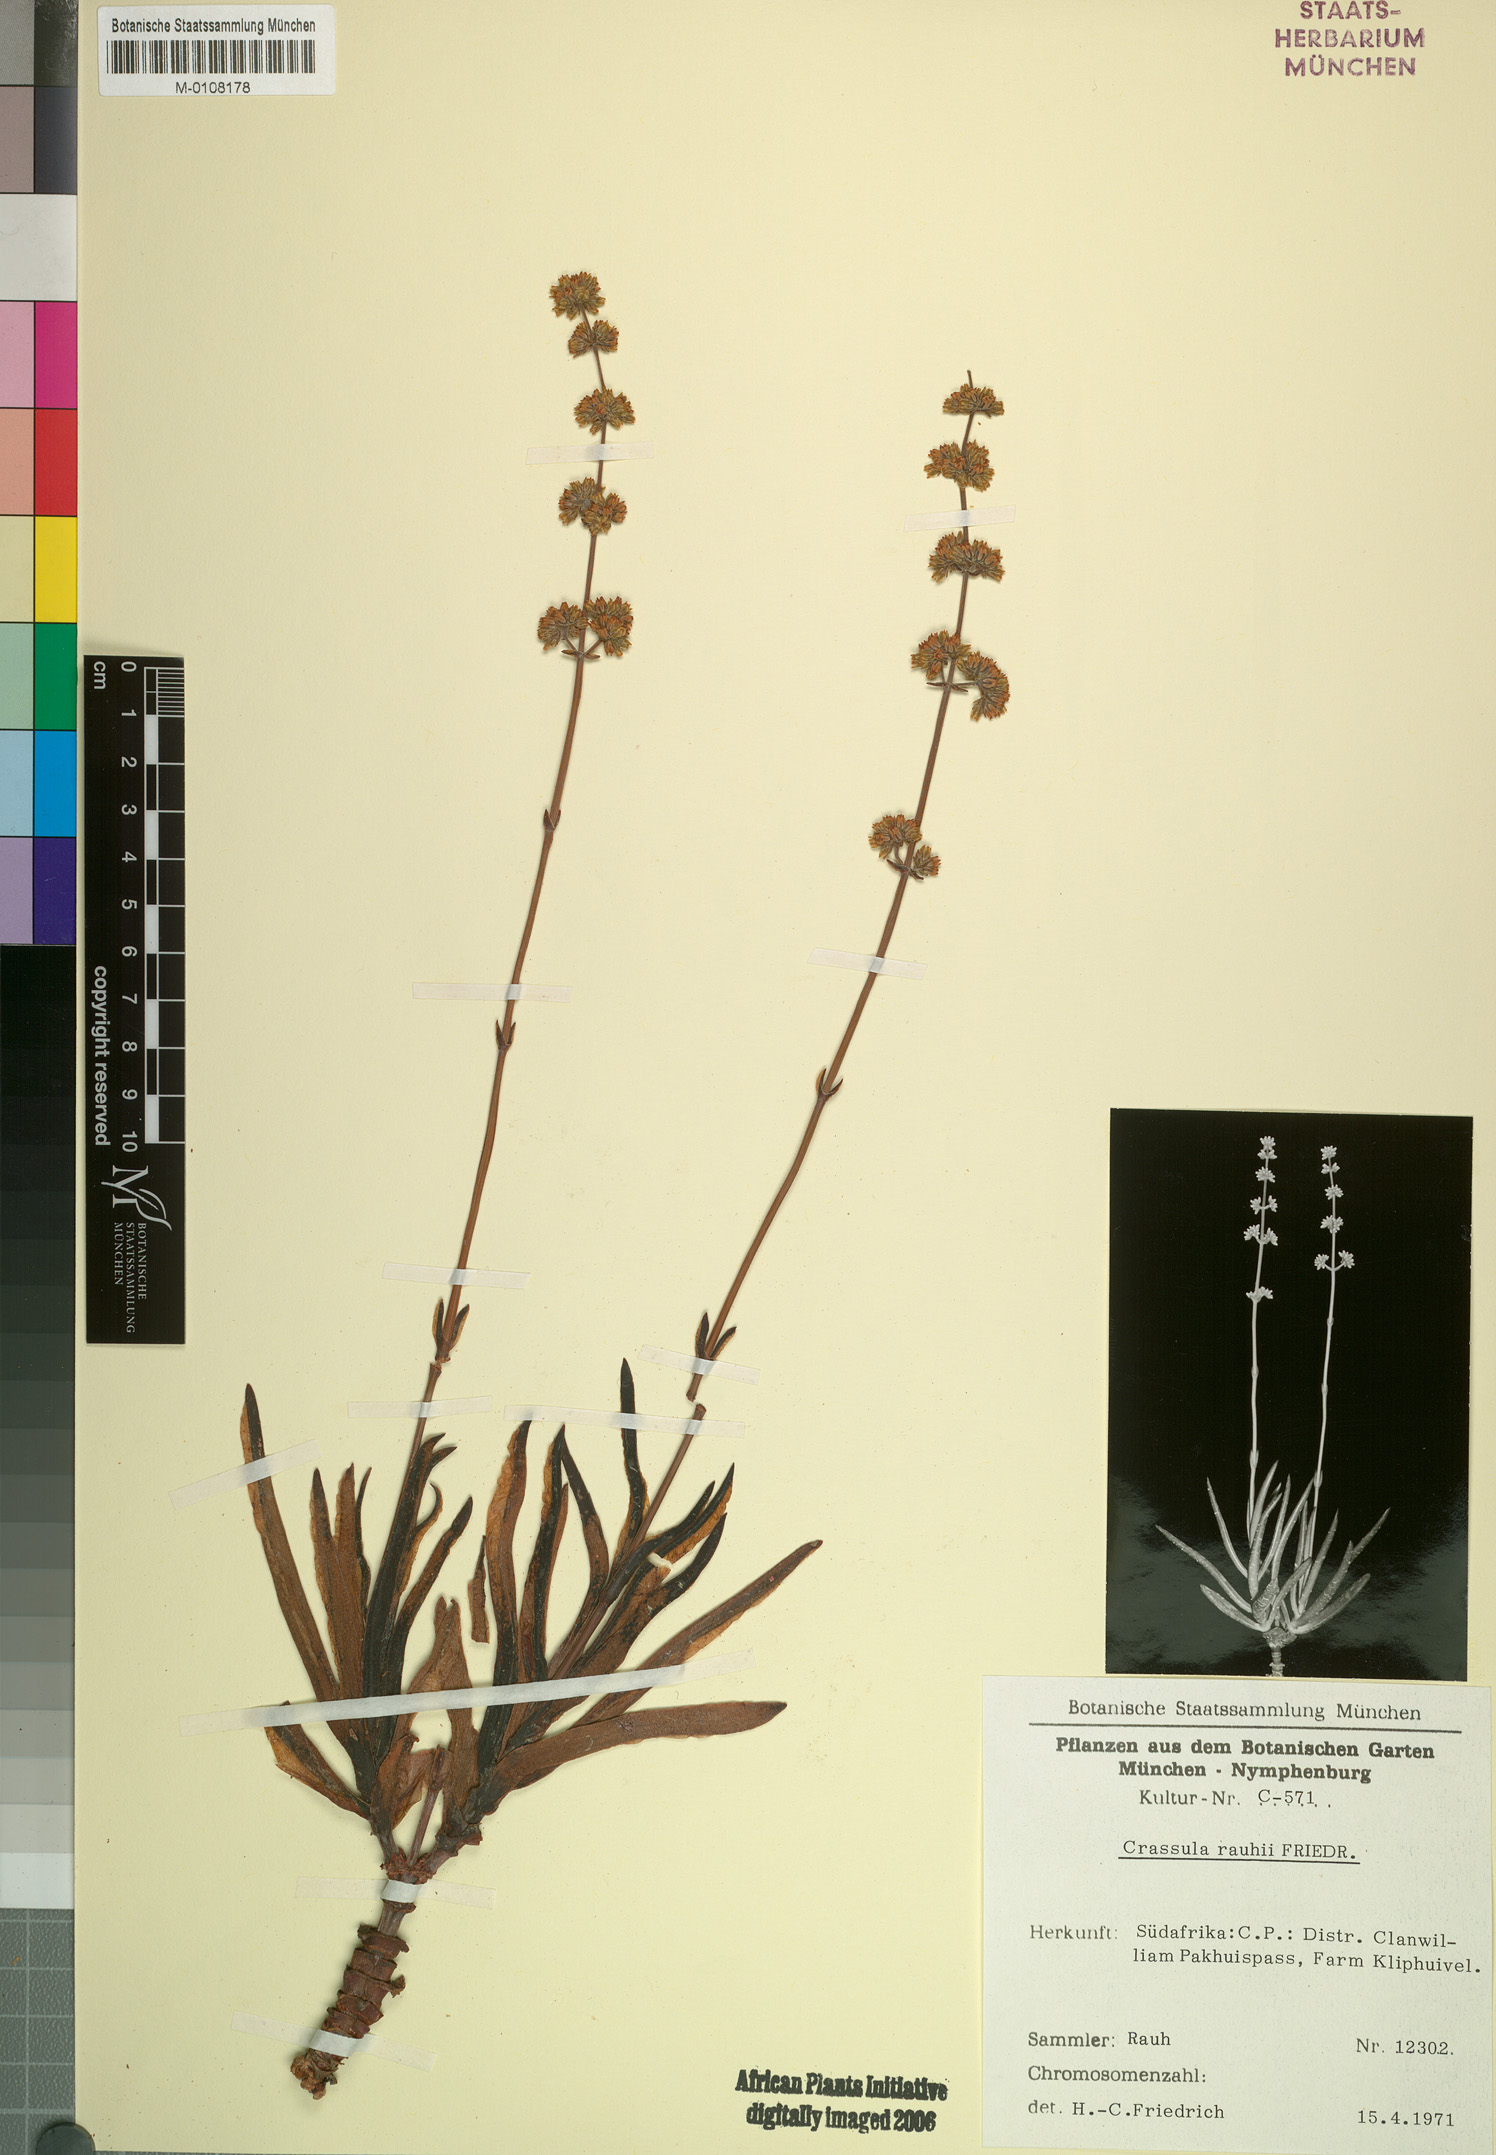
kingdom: Plantae
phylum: Tracheophyta
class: Magnoliopsida
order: Saxifragales
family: Crassulaceae
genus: Crassula
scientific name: Crassula subacaulis
